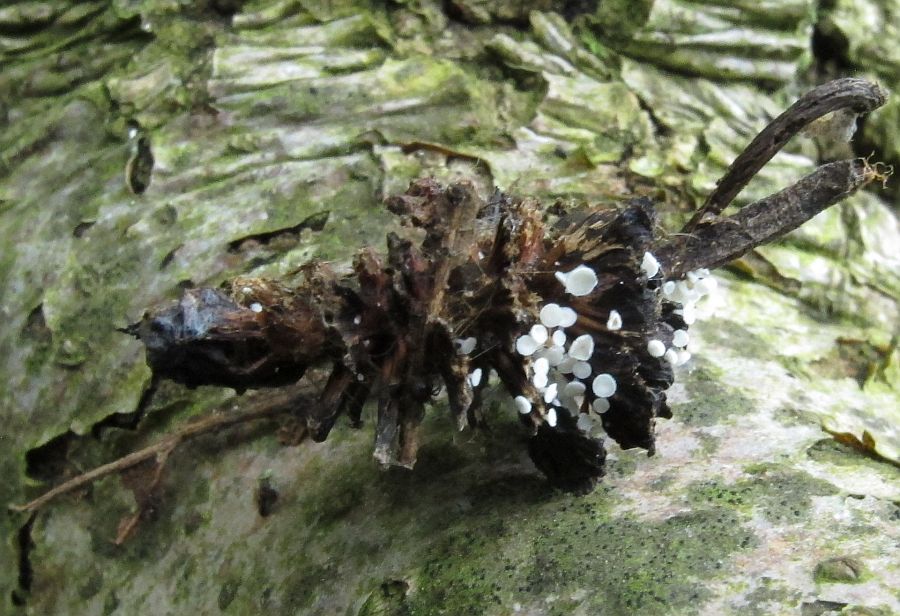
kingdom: Fungi
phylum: Ascomycota
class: Leotiomycetes
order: Helotiales
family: Lachnaceae
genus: Lachnum
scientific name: Lachnum virgineum
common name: jomfru-frynseskive
